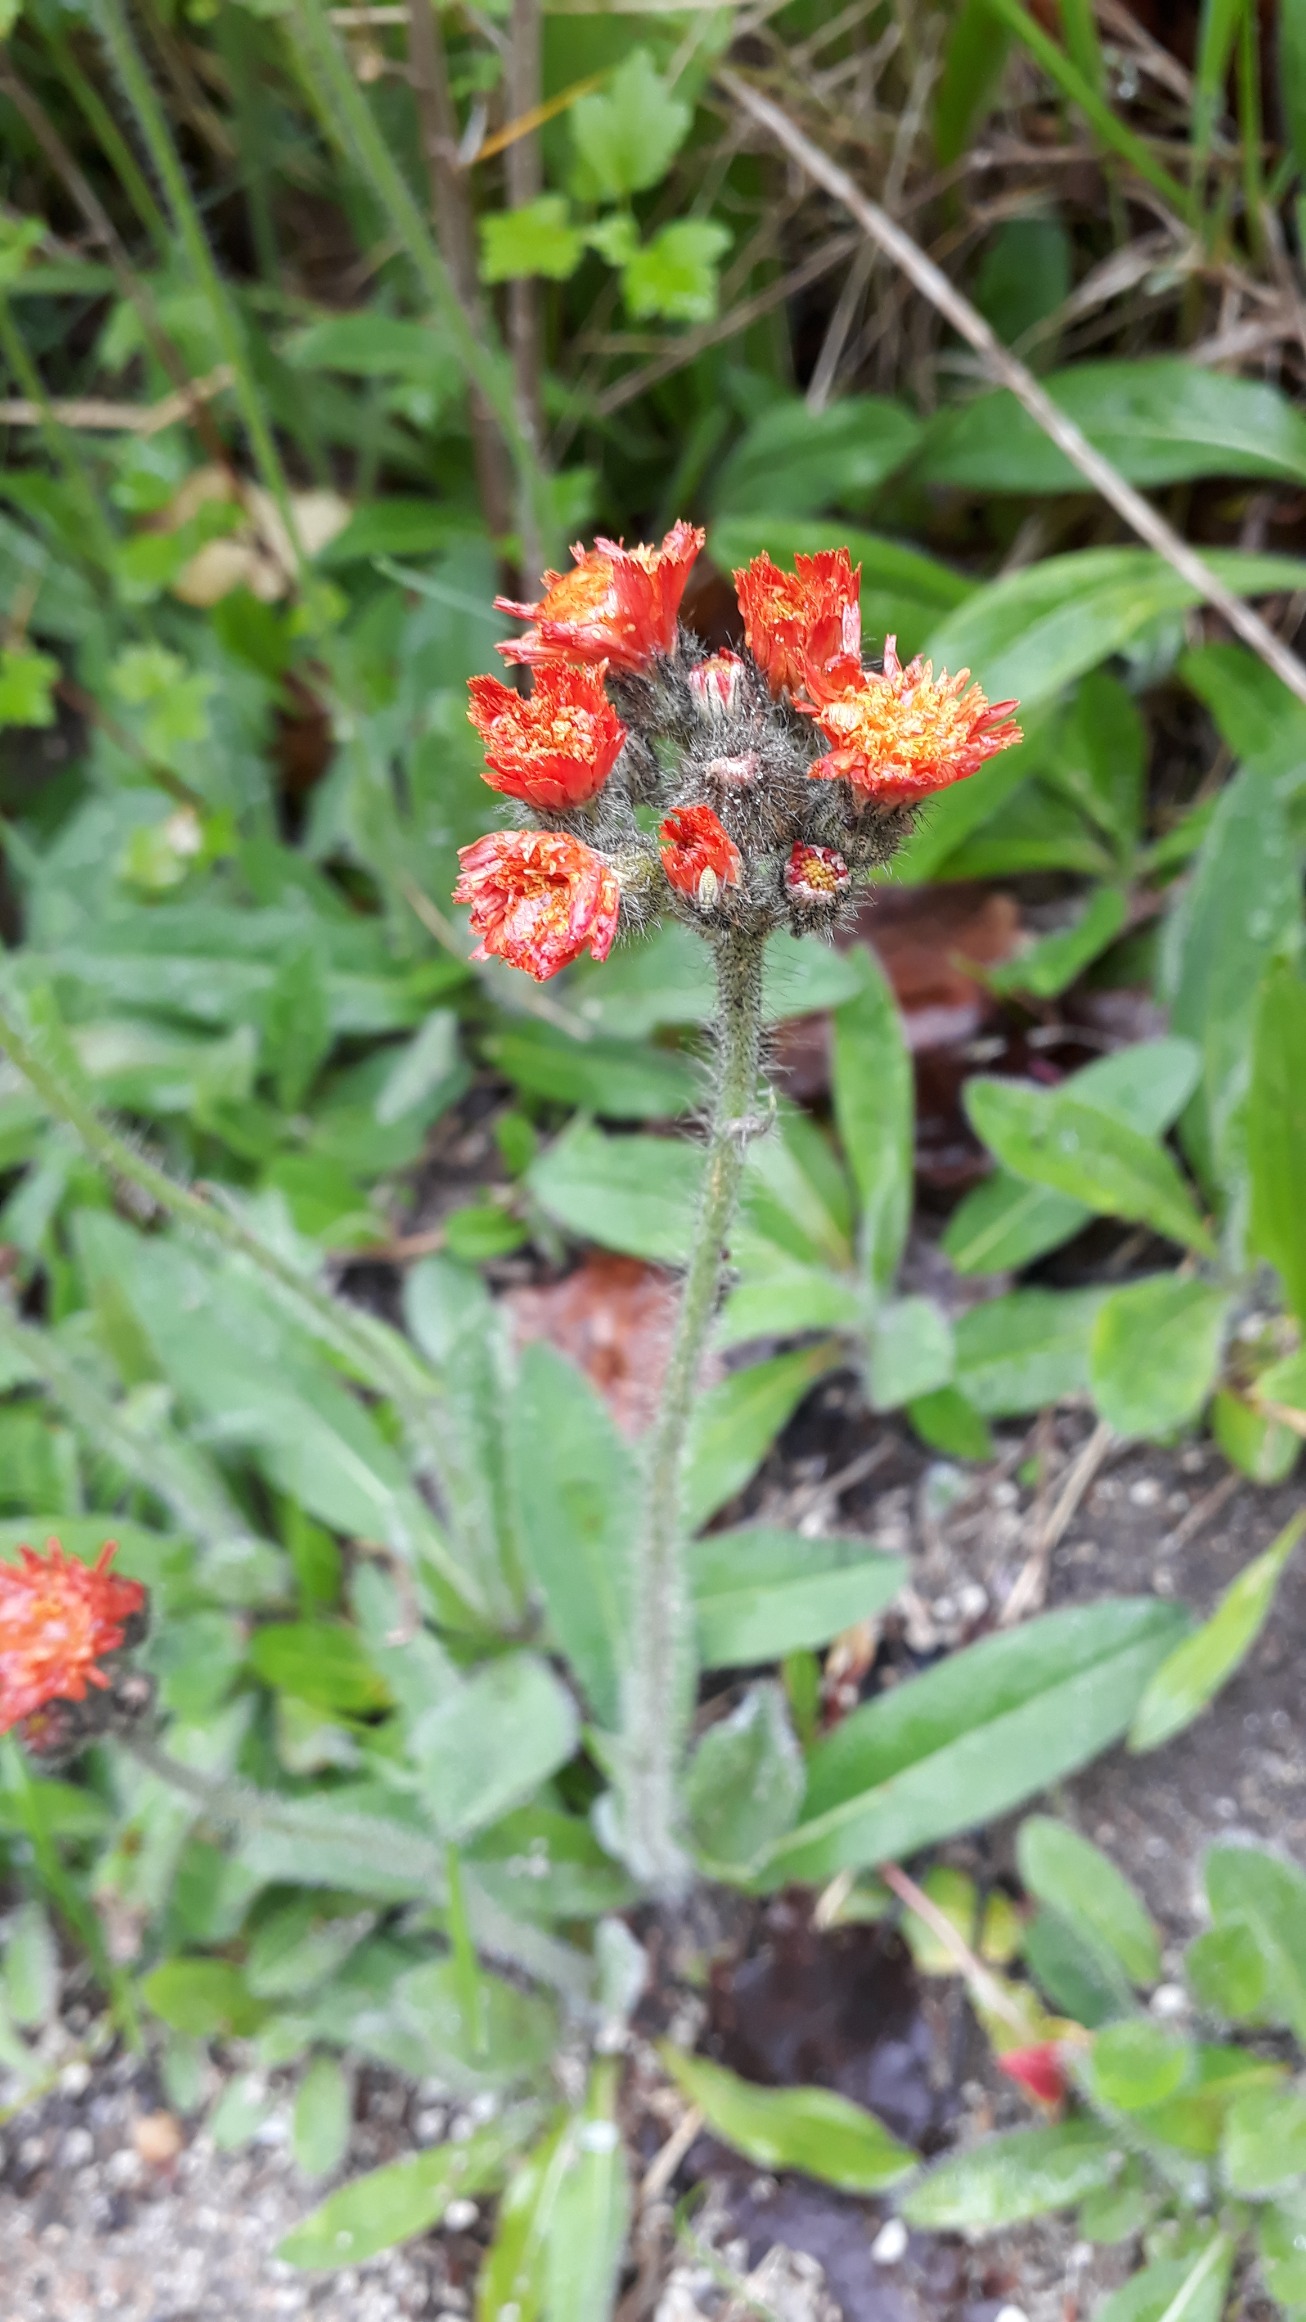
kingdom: Plantae
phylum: Tracheophyta
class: Magnoliopsida
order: Asterales
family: Asteraceae
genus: Pilosella
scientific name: Pilosella aurantiaca
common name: Pomerans-høgeurt
